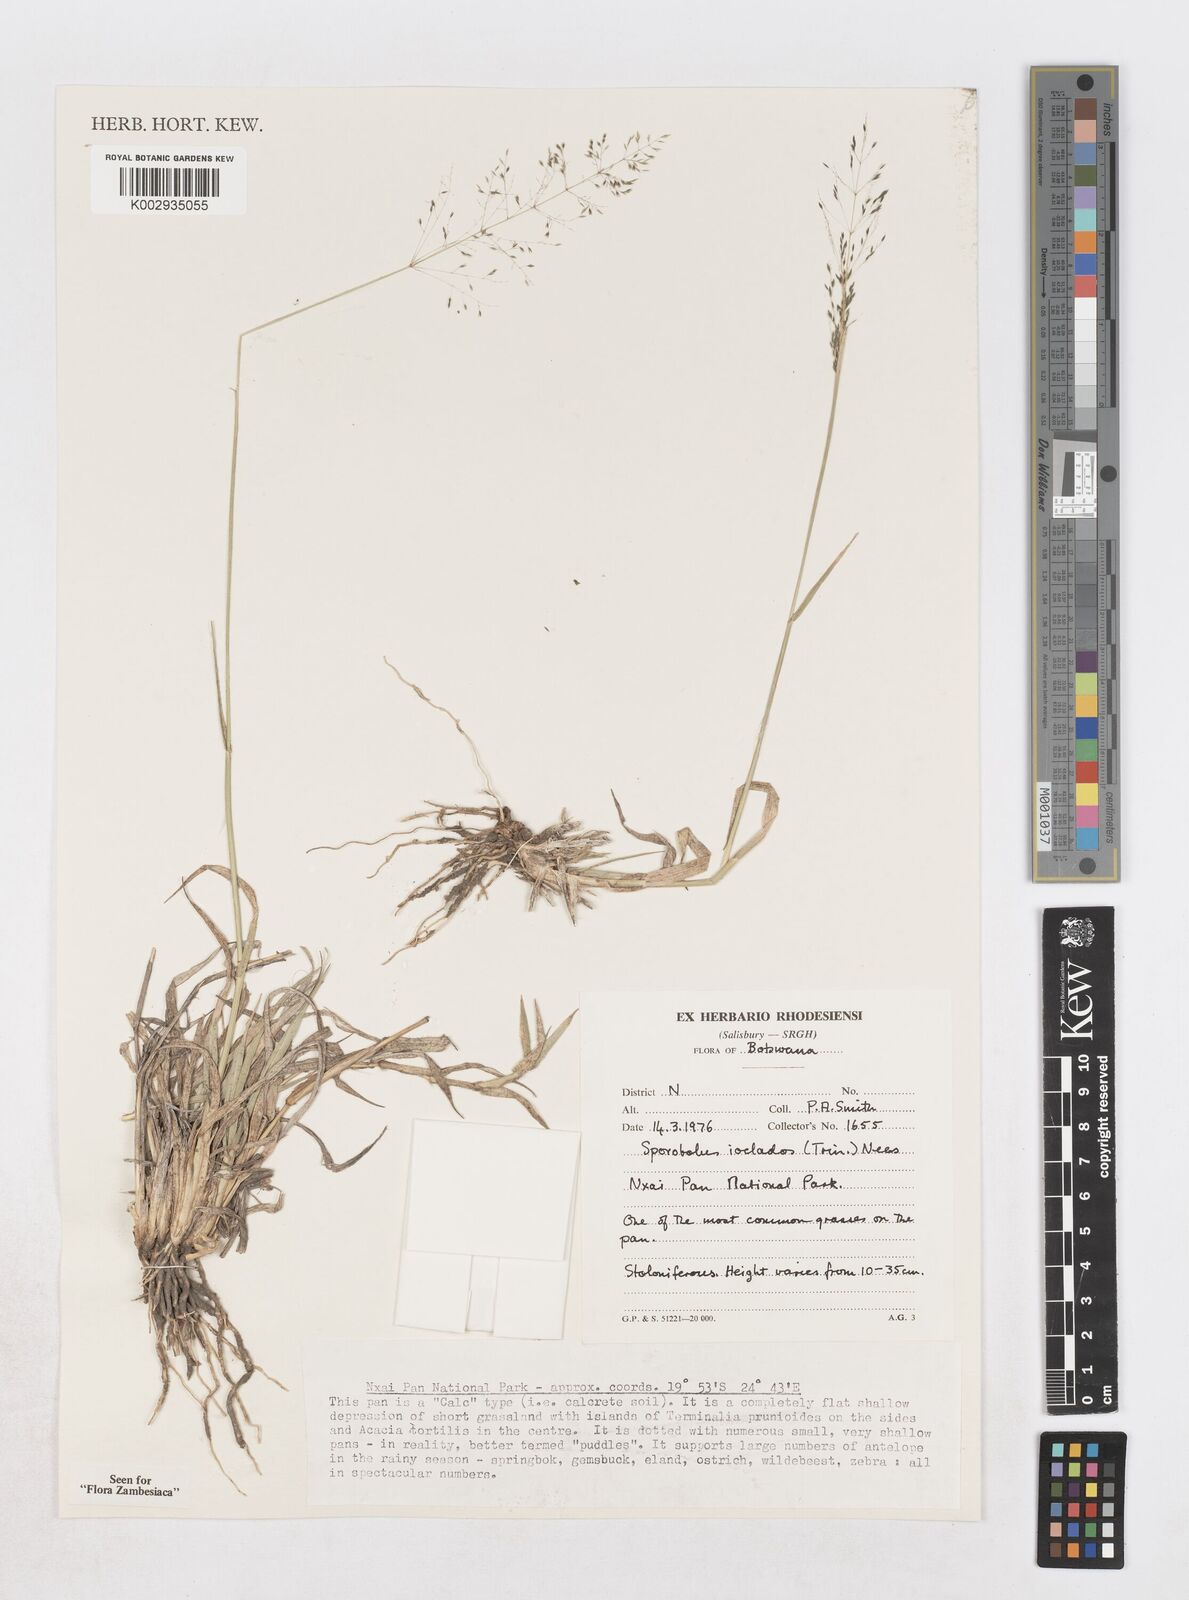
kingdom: Plantae
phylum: Tracheophyta
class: Liliopsida
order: Poales
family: Poaceae
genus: Sporobolus
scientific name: Sporobolus ioclados
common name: Pan dropseed
